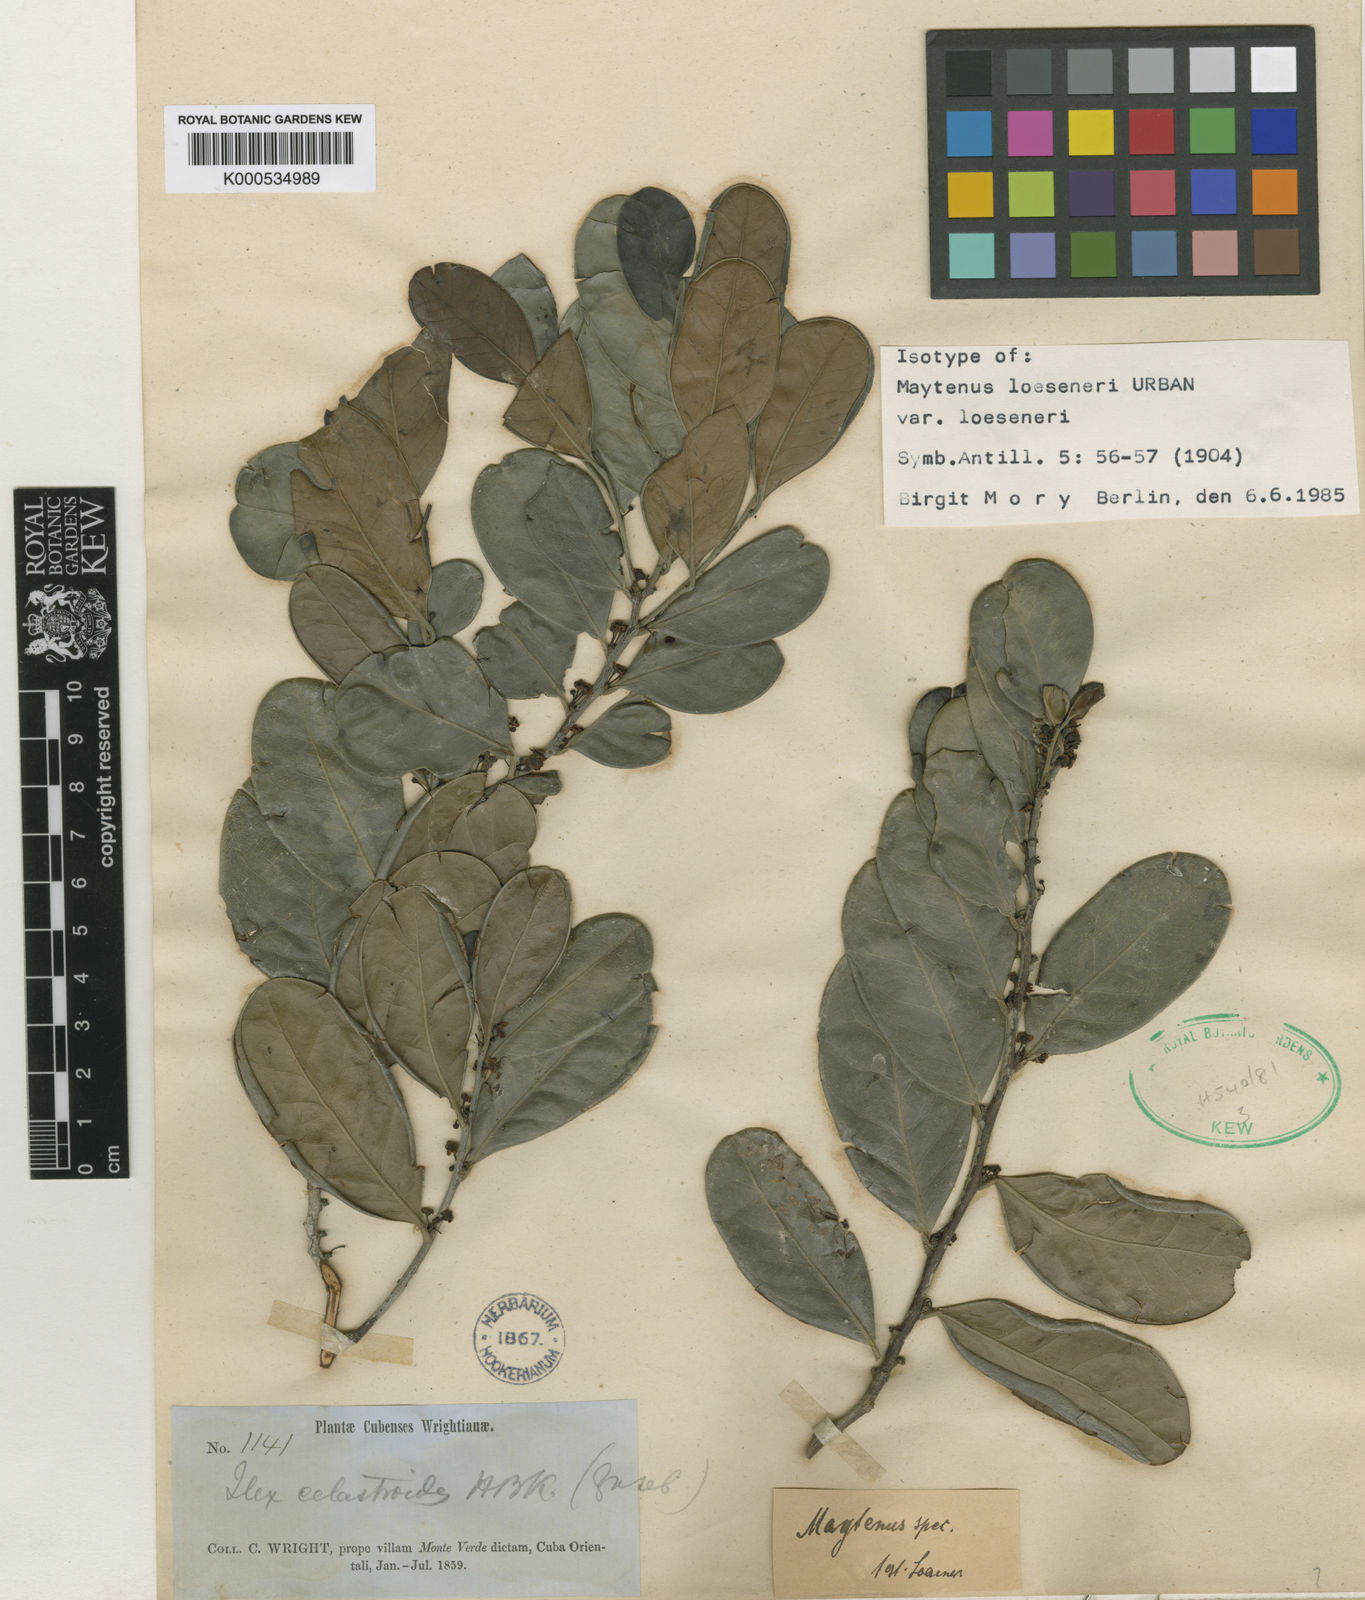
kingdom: Plantae
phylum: Tracheophyta
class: Magnoliopsida
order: Celastrales
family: Celastraceae
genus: Monteverdia
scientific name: Monteverdia loeseneri
